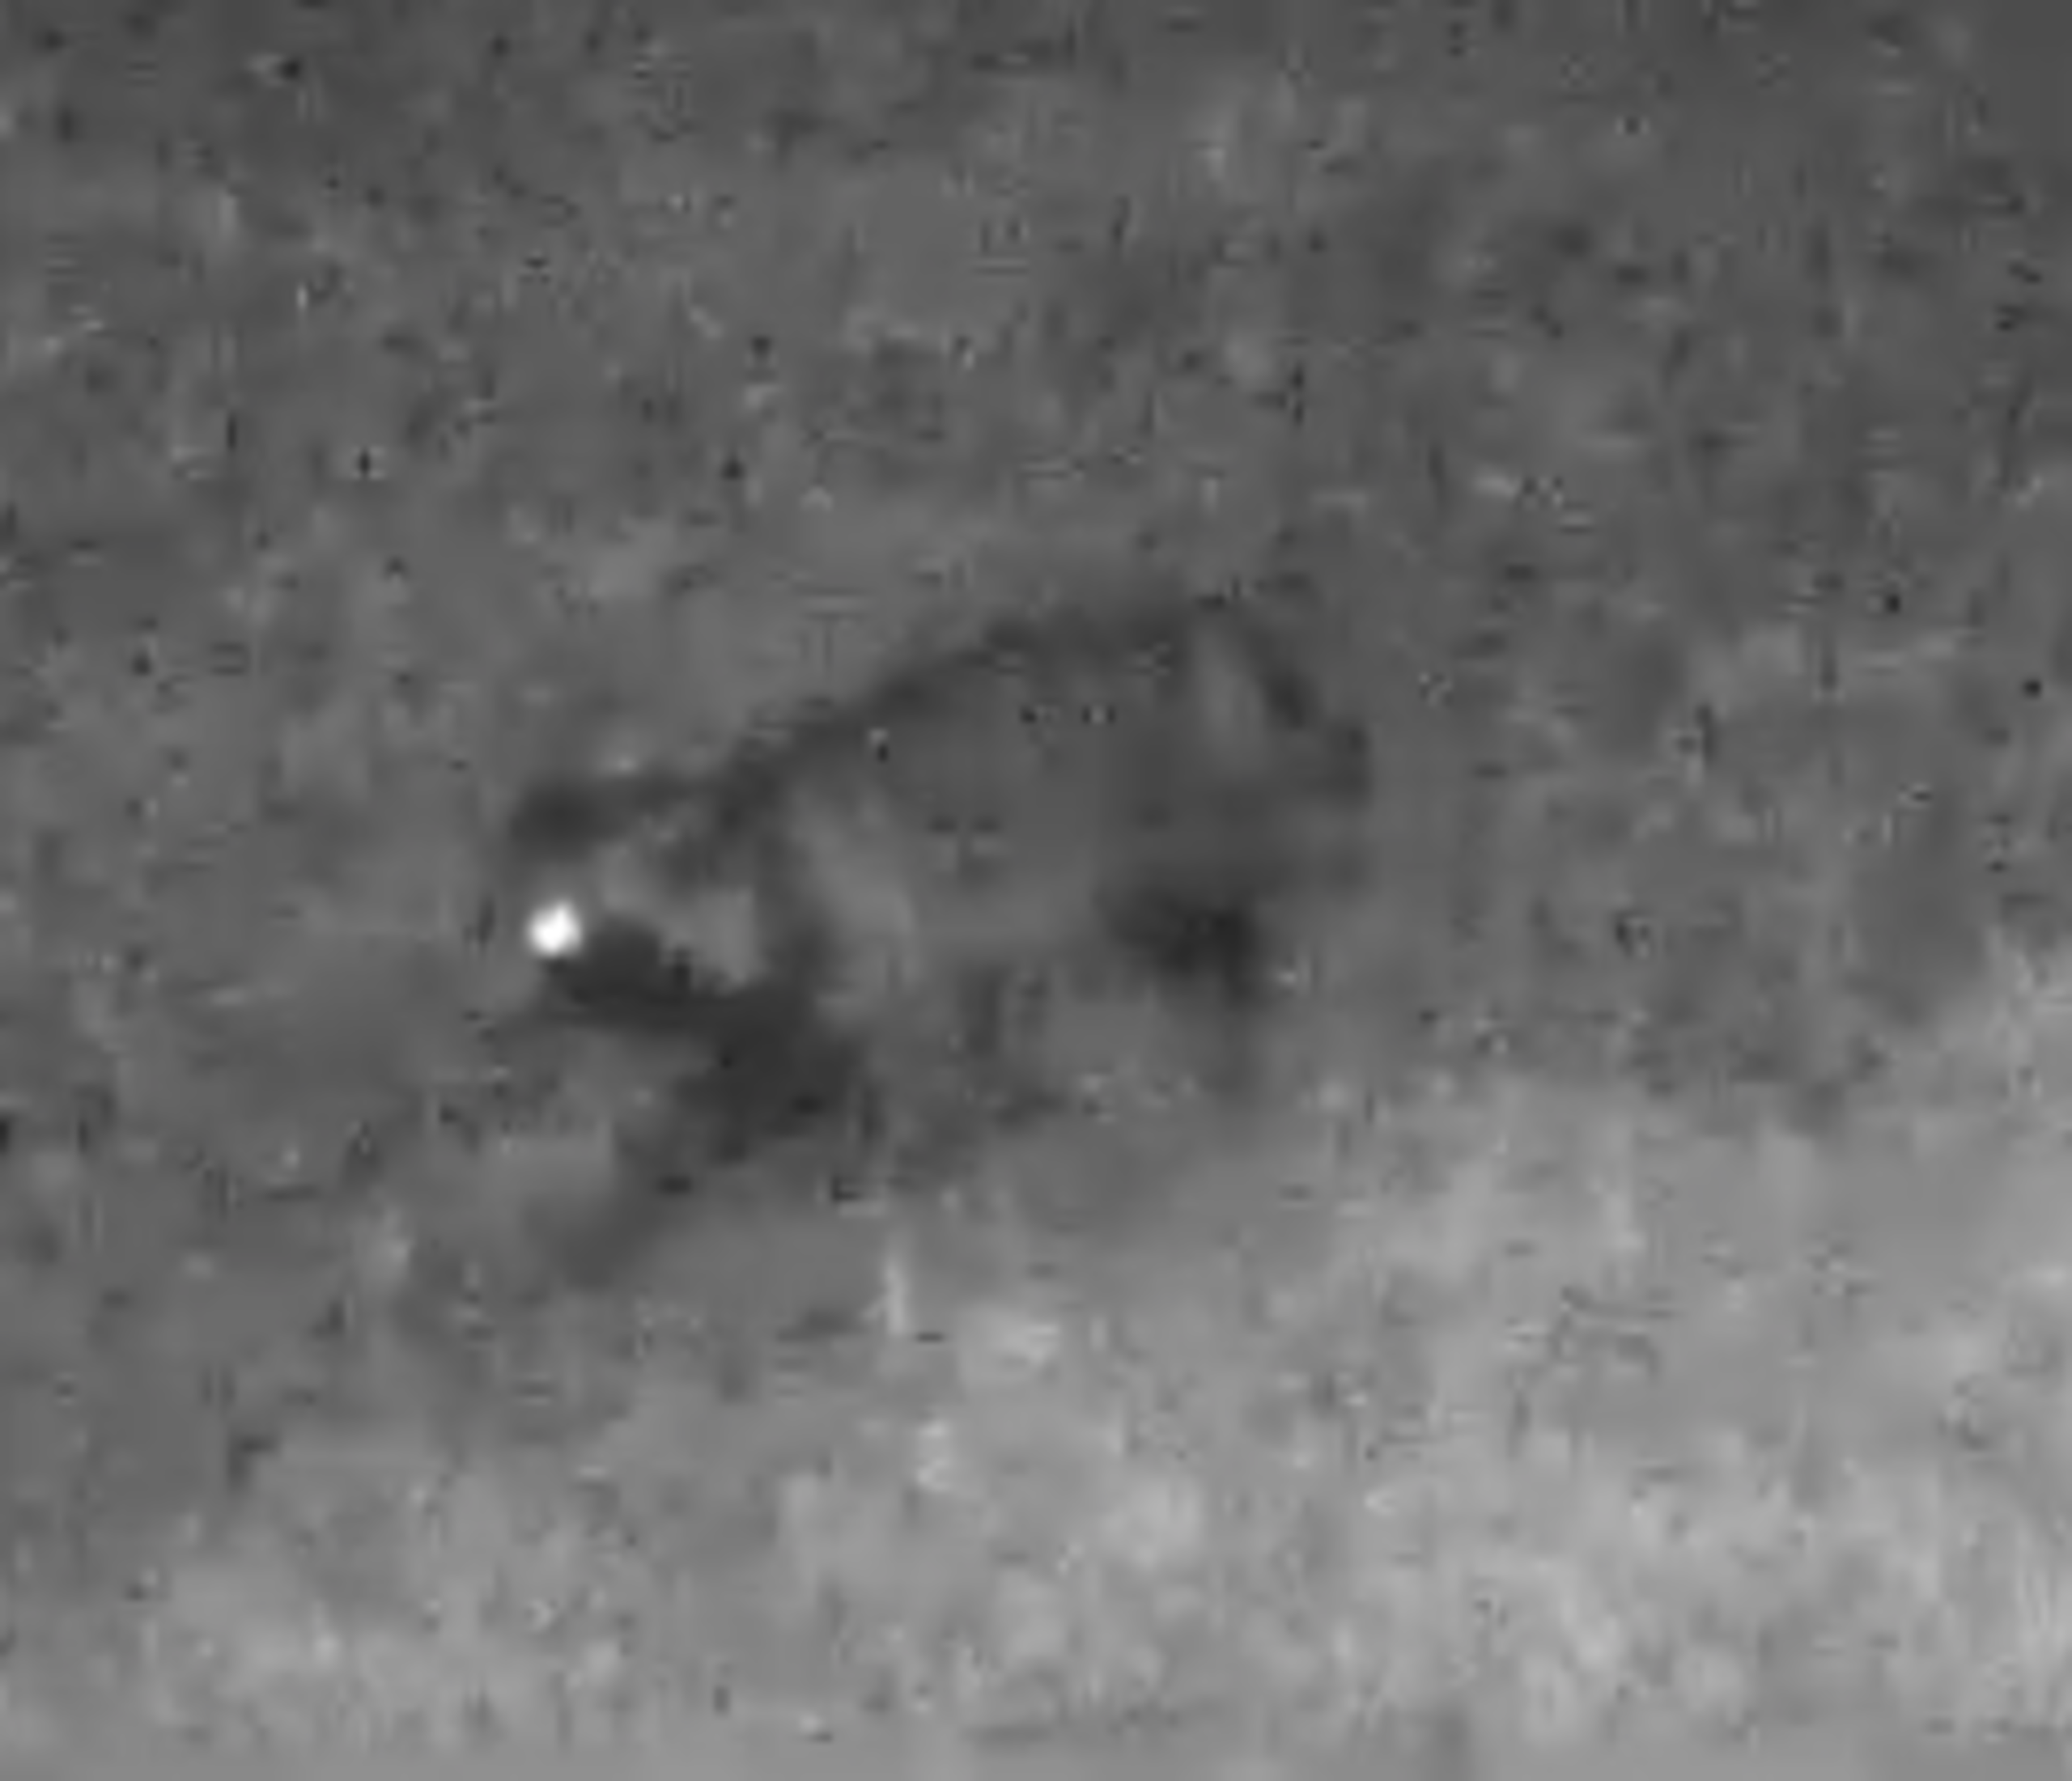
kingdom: Animalia
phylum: Chordata
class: Mammalia
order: Carnivora
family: Canidae
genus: Nyctereutes
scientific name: Nyctereutes procyonoides
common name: Mårhund
